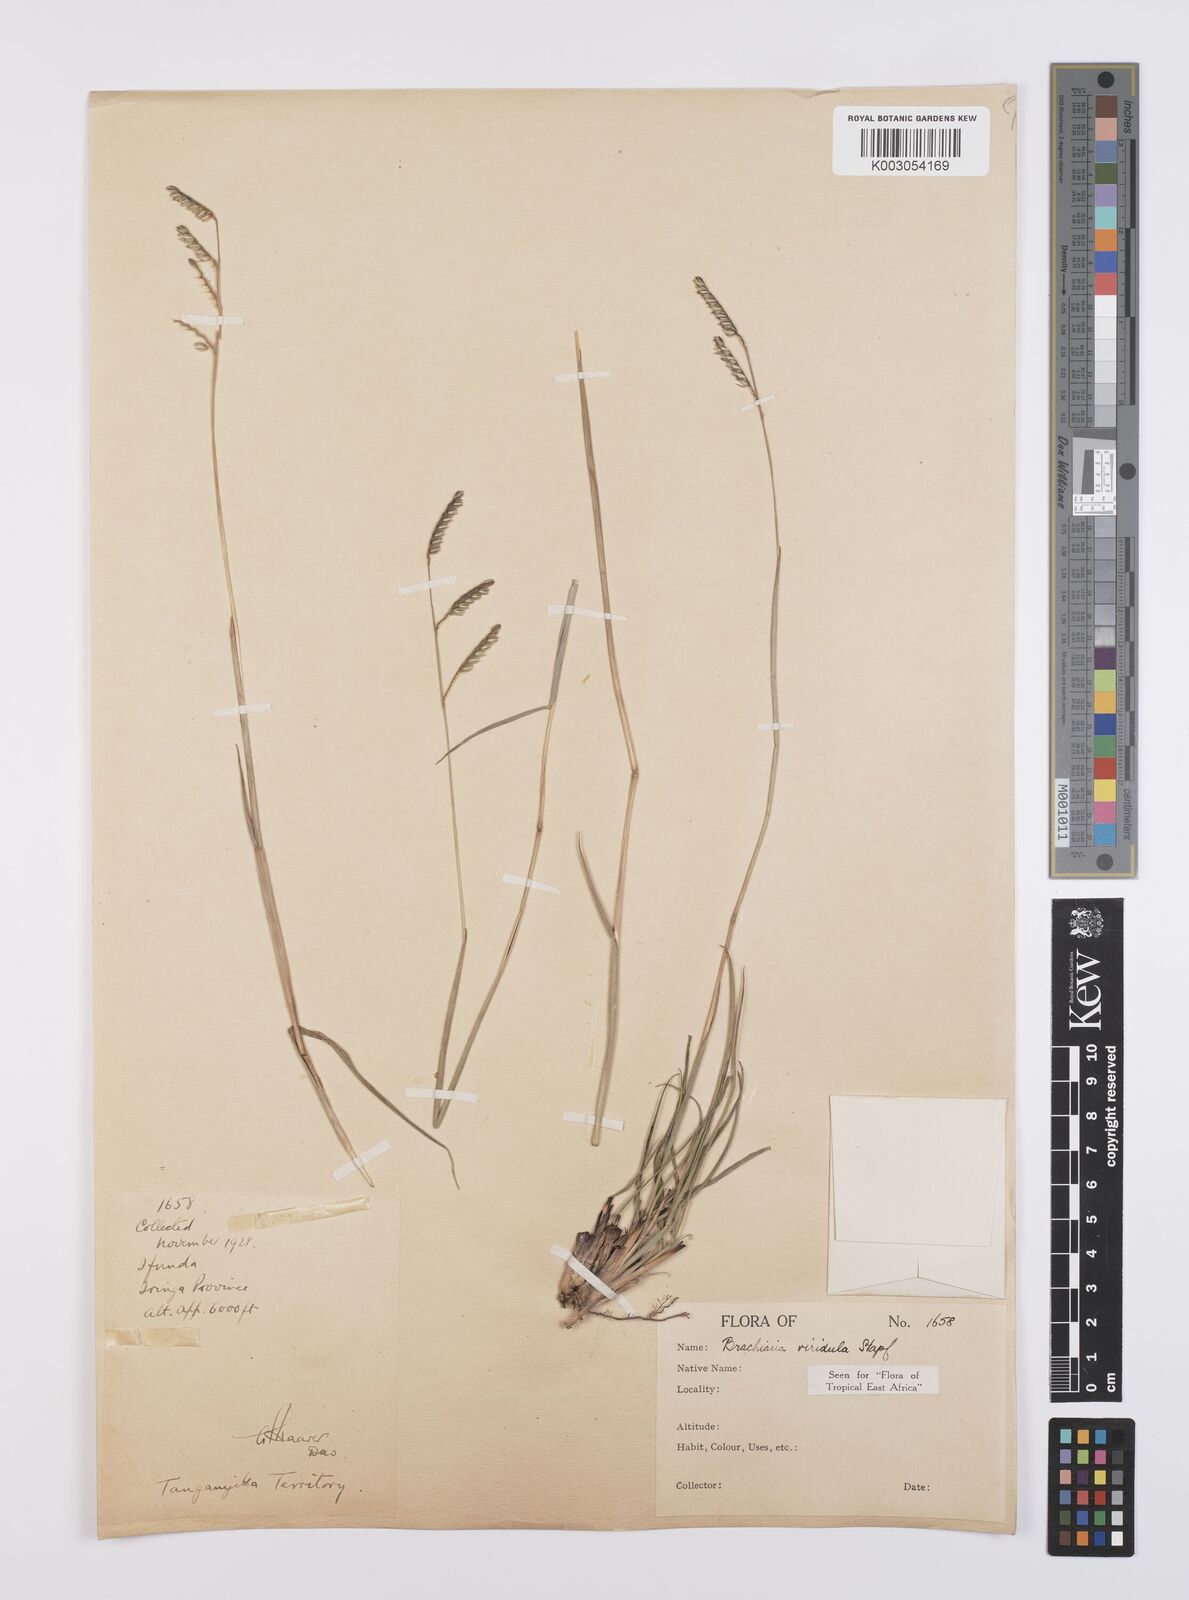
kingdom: Plantae
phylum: Tracheophyta
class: Liliopsida
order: Poales
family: Poaceae
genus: Urochloa
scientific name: Urochloa bovonei
